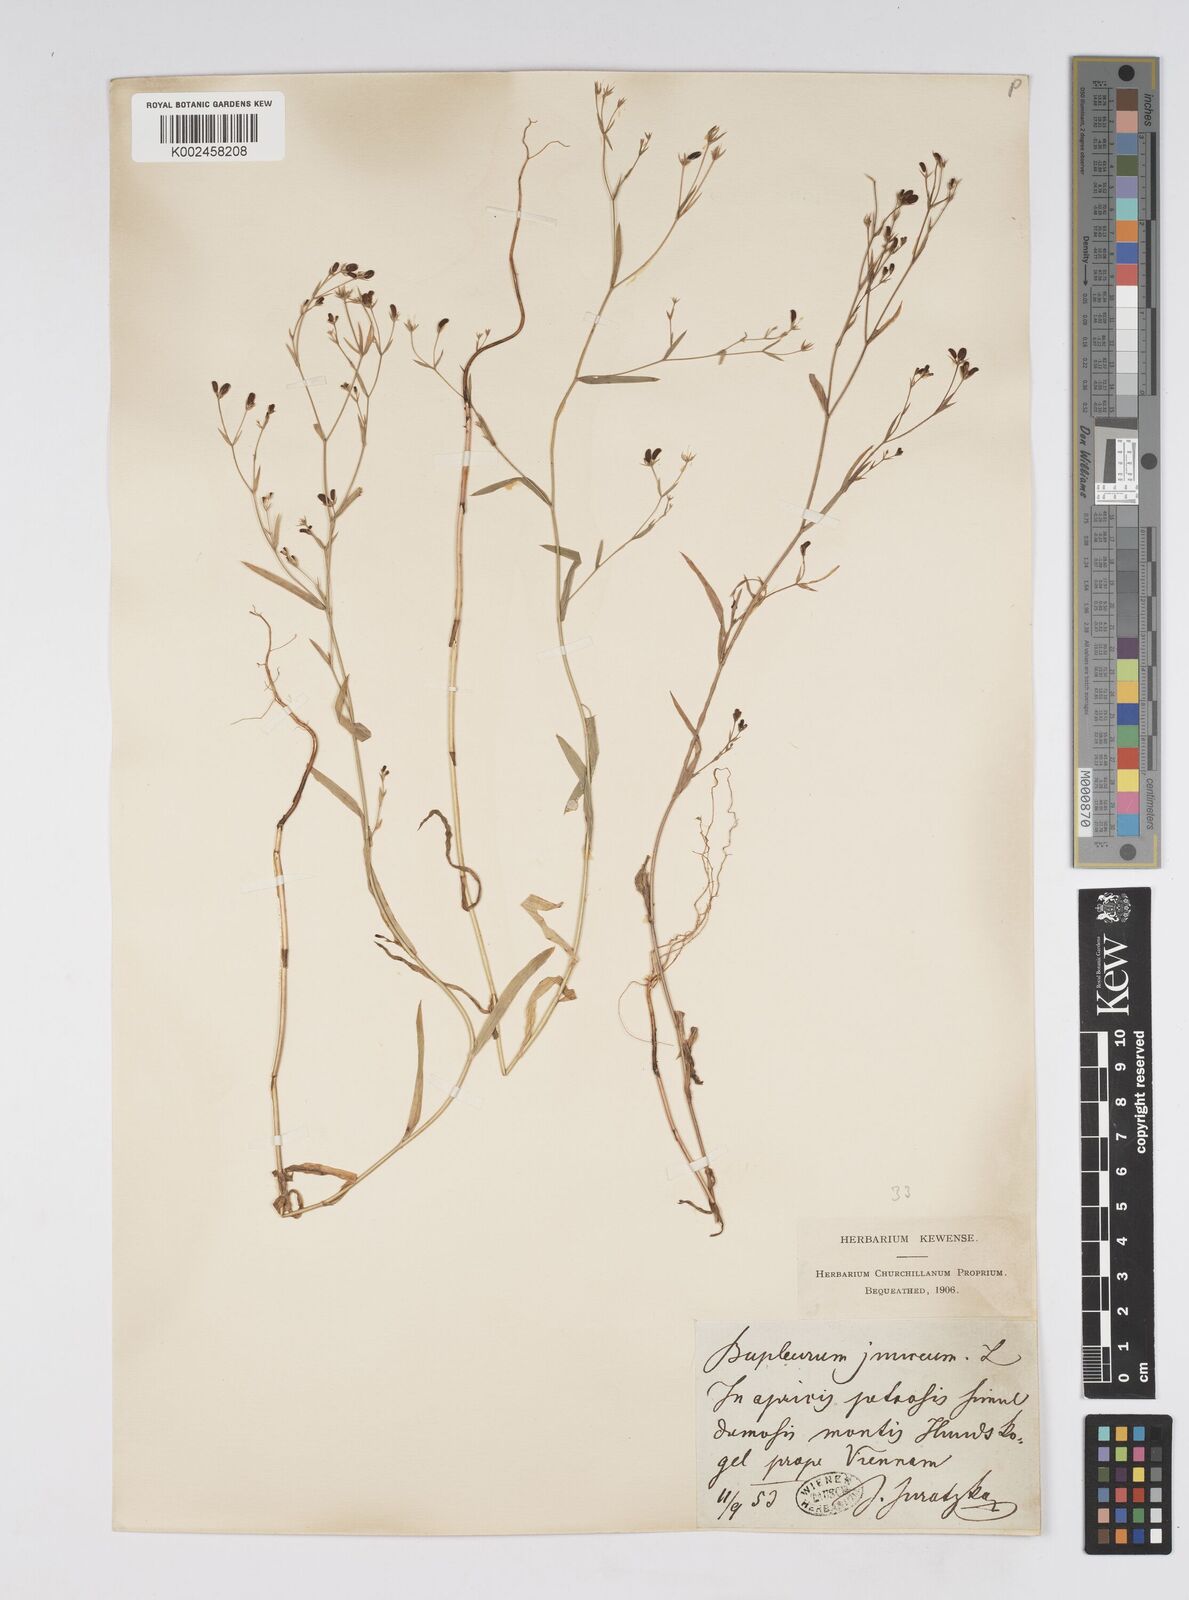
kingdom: Plantae
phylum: Tracheophyta
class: Magnoliopsida
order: Apiales
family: Apiaceae
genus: Bupleurum
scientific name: Bupleurum praealtum
